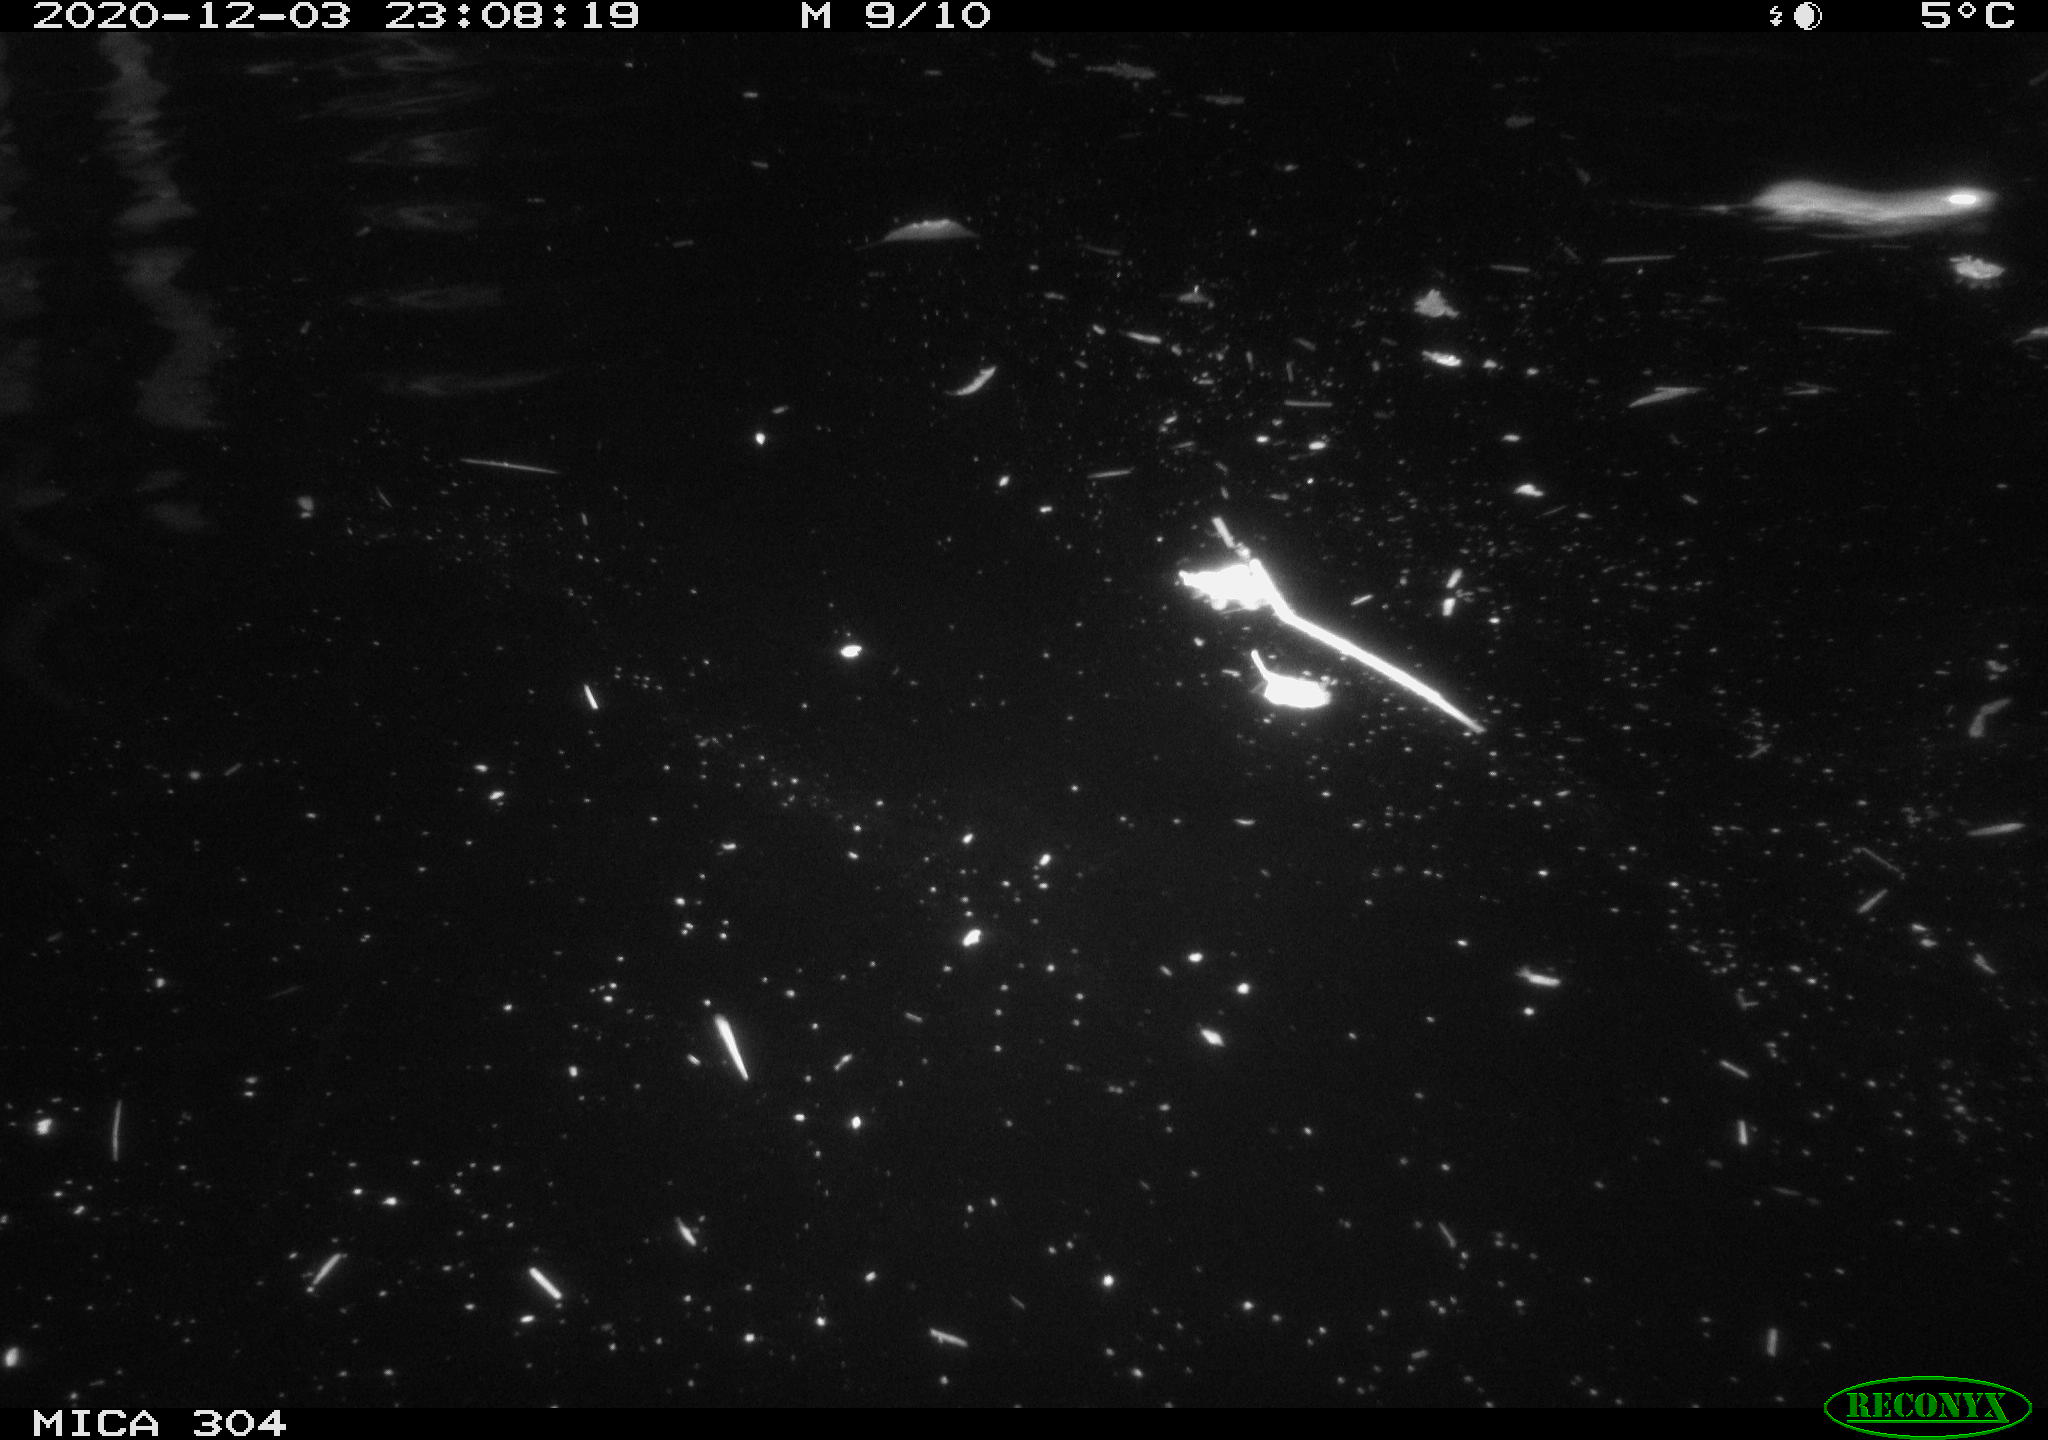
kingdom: Animalia
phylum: Chordata
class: Mammalia
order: Rodentia
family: Muridae
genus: Rattus
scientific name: Rattus norvegicus
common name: Brown rat
